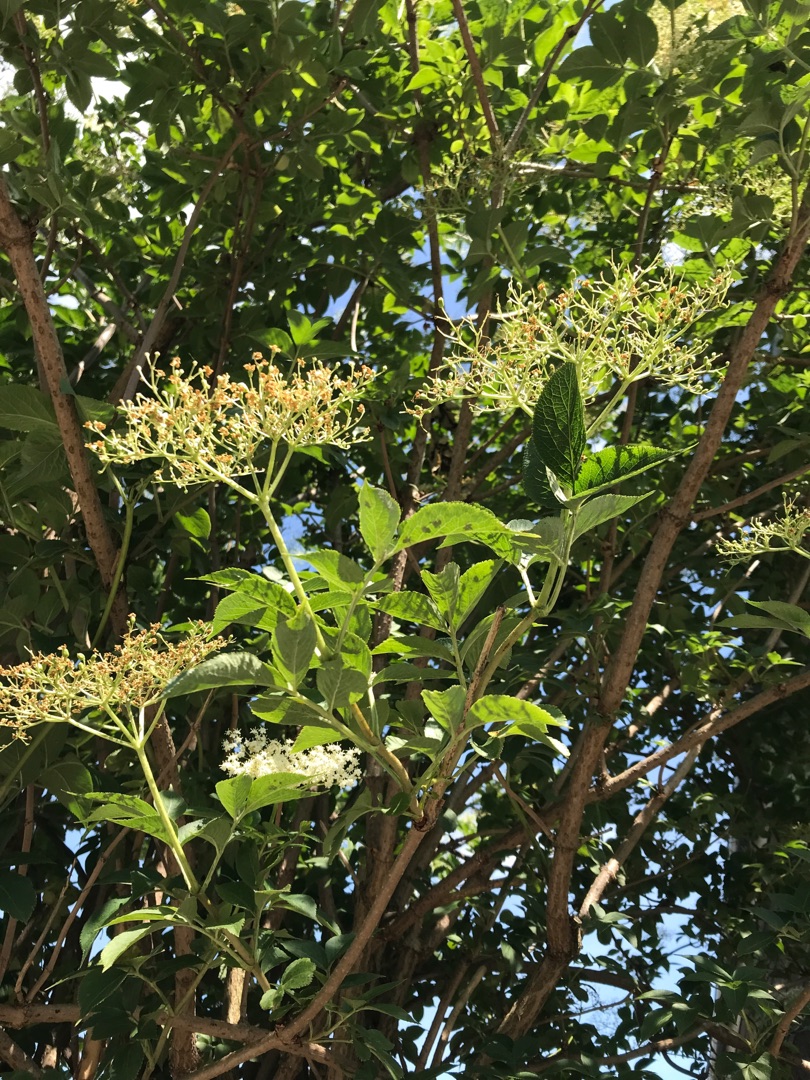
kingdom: Plantae
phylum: Tracheophyta
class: Magnoliopsida
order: Dipsacales
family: Viburnaceae
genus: Sambucus
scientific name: Sambucus nigra
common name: Almindelig hyld
